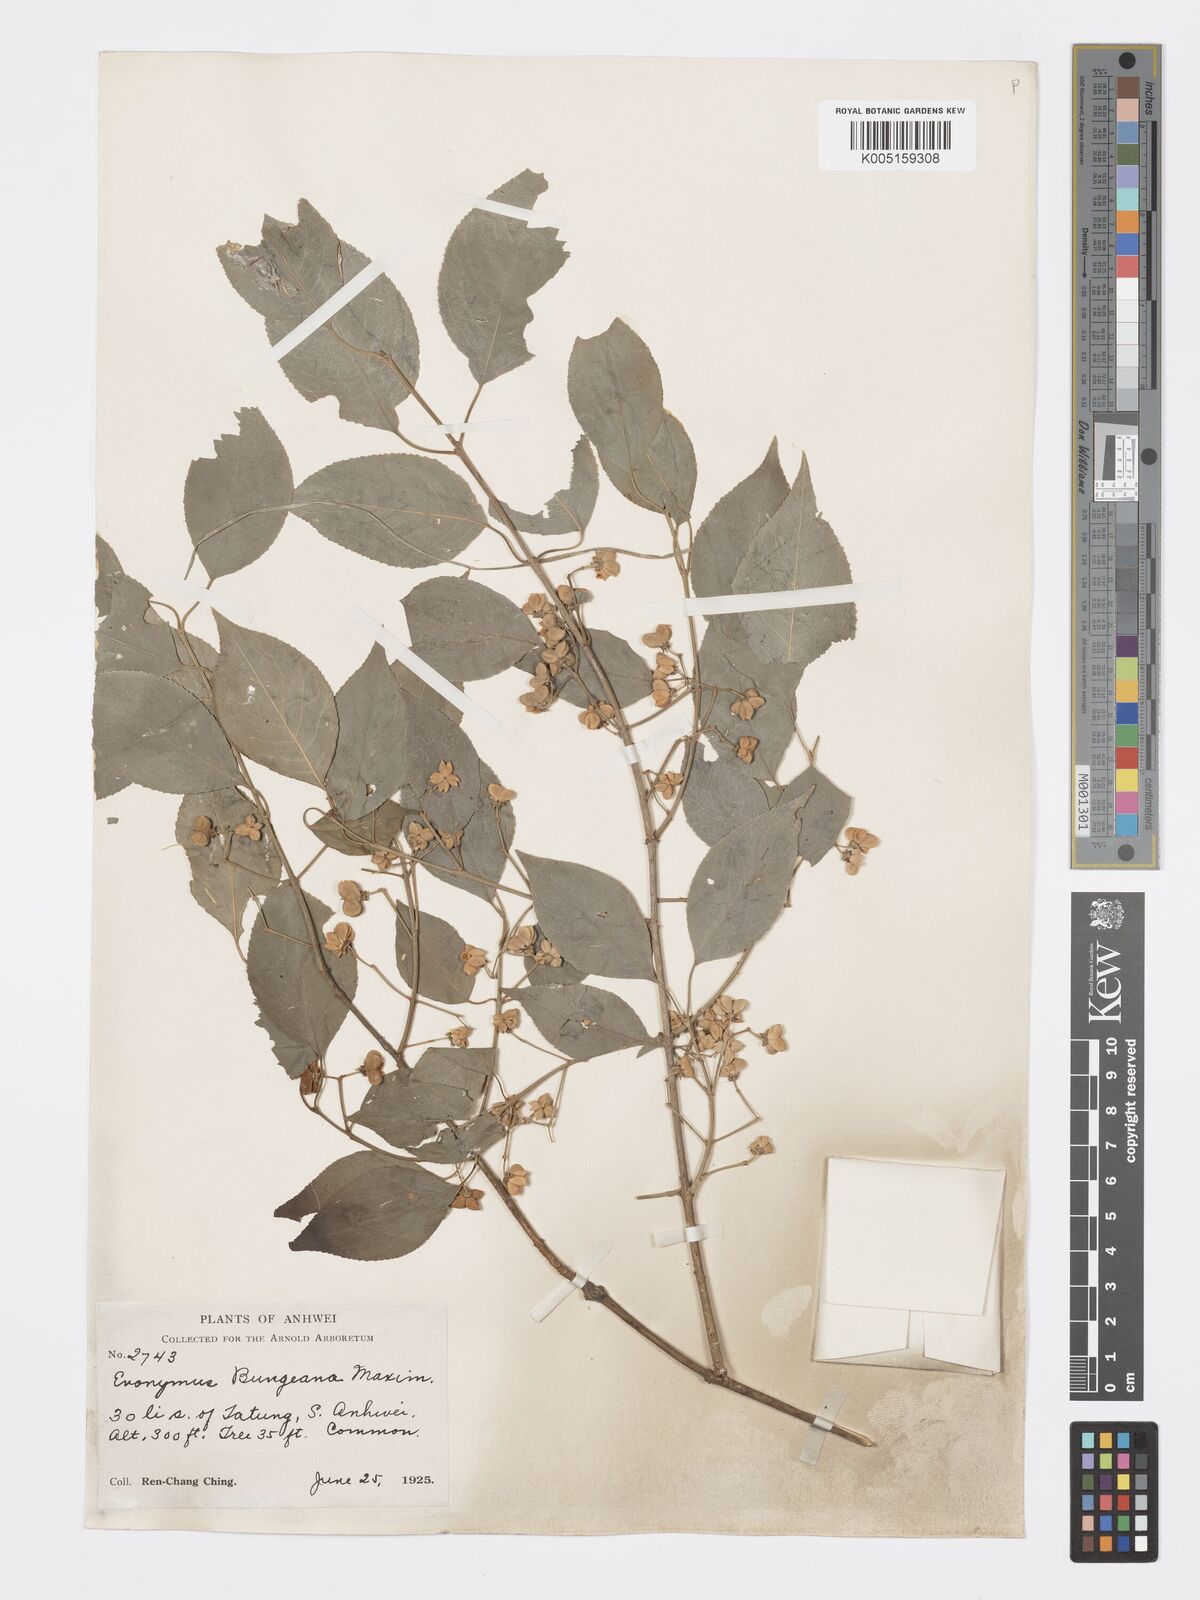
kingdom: Plantae
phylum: Tracheophyta
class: Magnoliopsida
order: Celastrales
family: Celastraceae
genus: Euonymus
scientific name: Euonymus maackii
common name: Hamilton's spindletree
